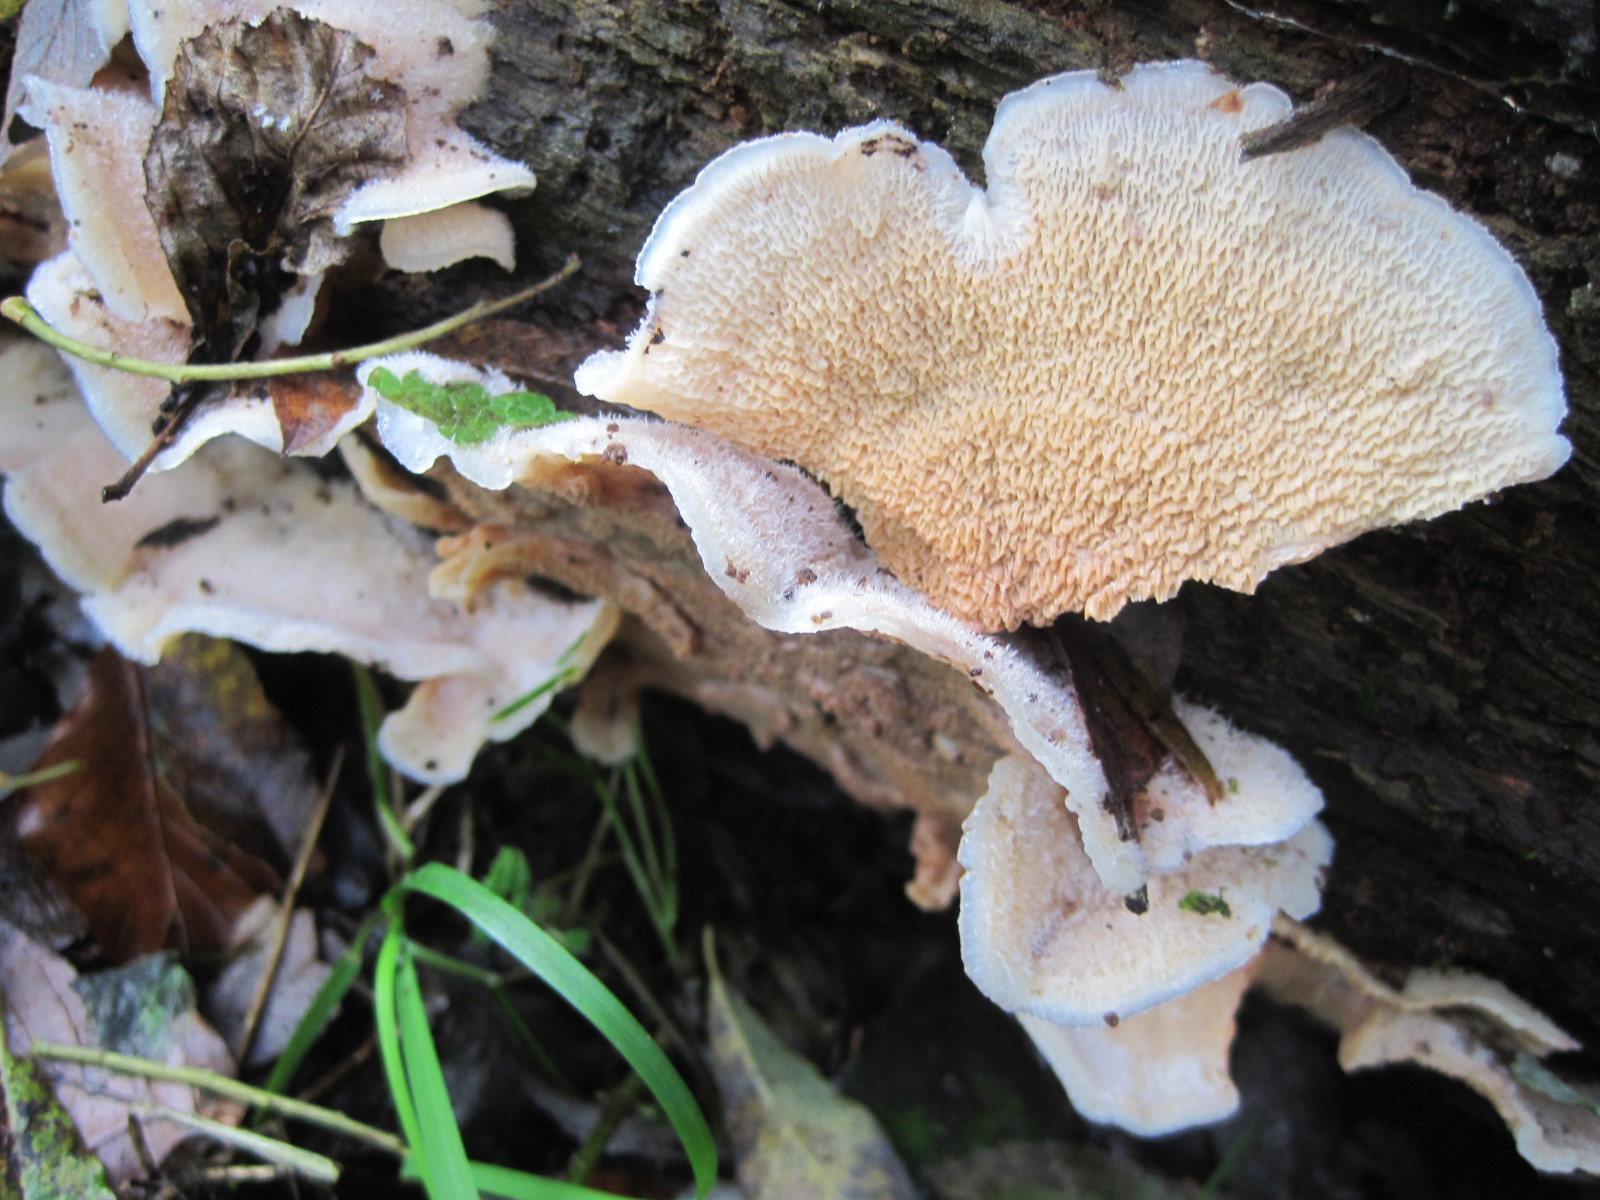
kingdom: Fungi
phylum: Basidiomycota
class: Agaricomycetes
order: Polyporales
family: Meruliaceae
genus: Phlebia
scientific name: Phlebia tremellosa
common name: bævrende åresvamp
